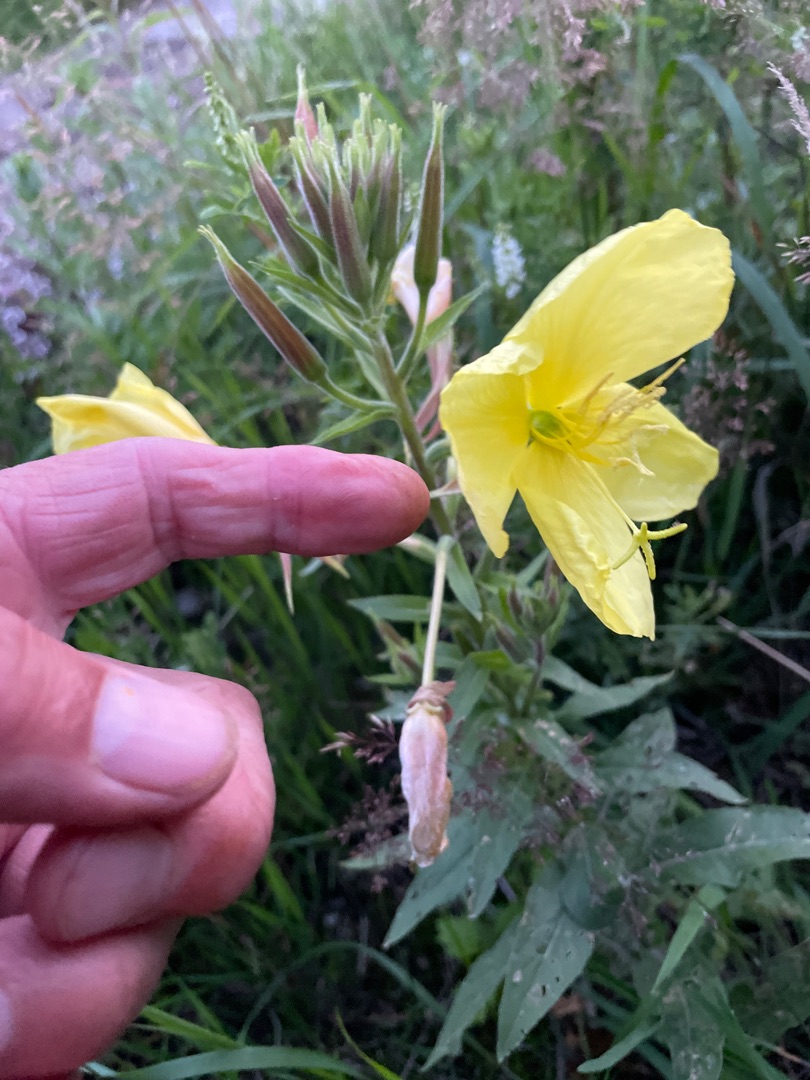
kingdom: Plantae
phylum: Tracheophyta
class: Magnoliopsida
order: Myrtales
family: Onagraceae
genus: Oenothera
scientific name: Oenothera glazioviana
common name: Kæmpe-natlys
